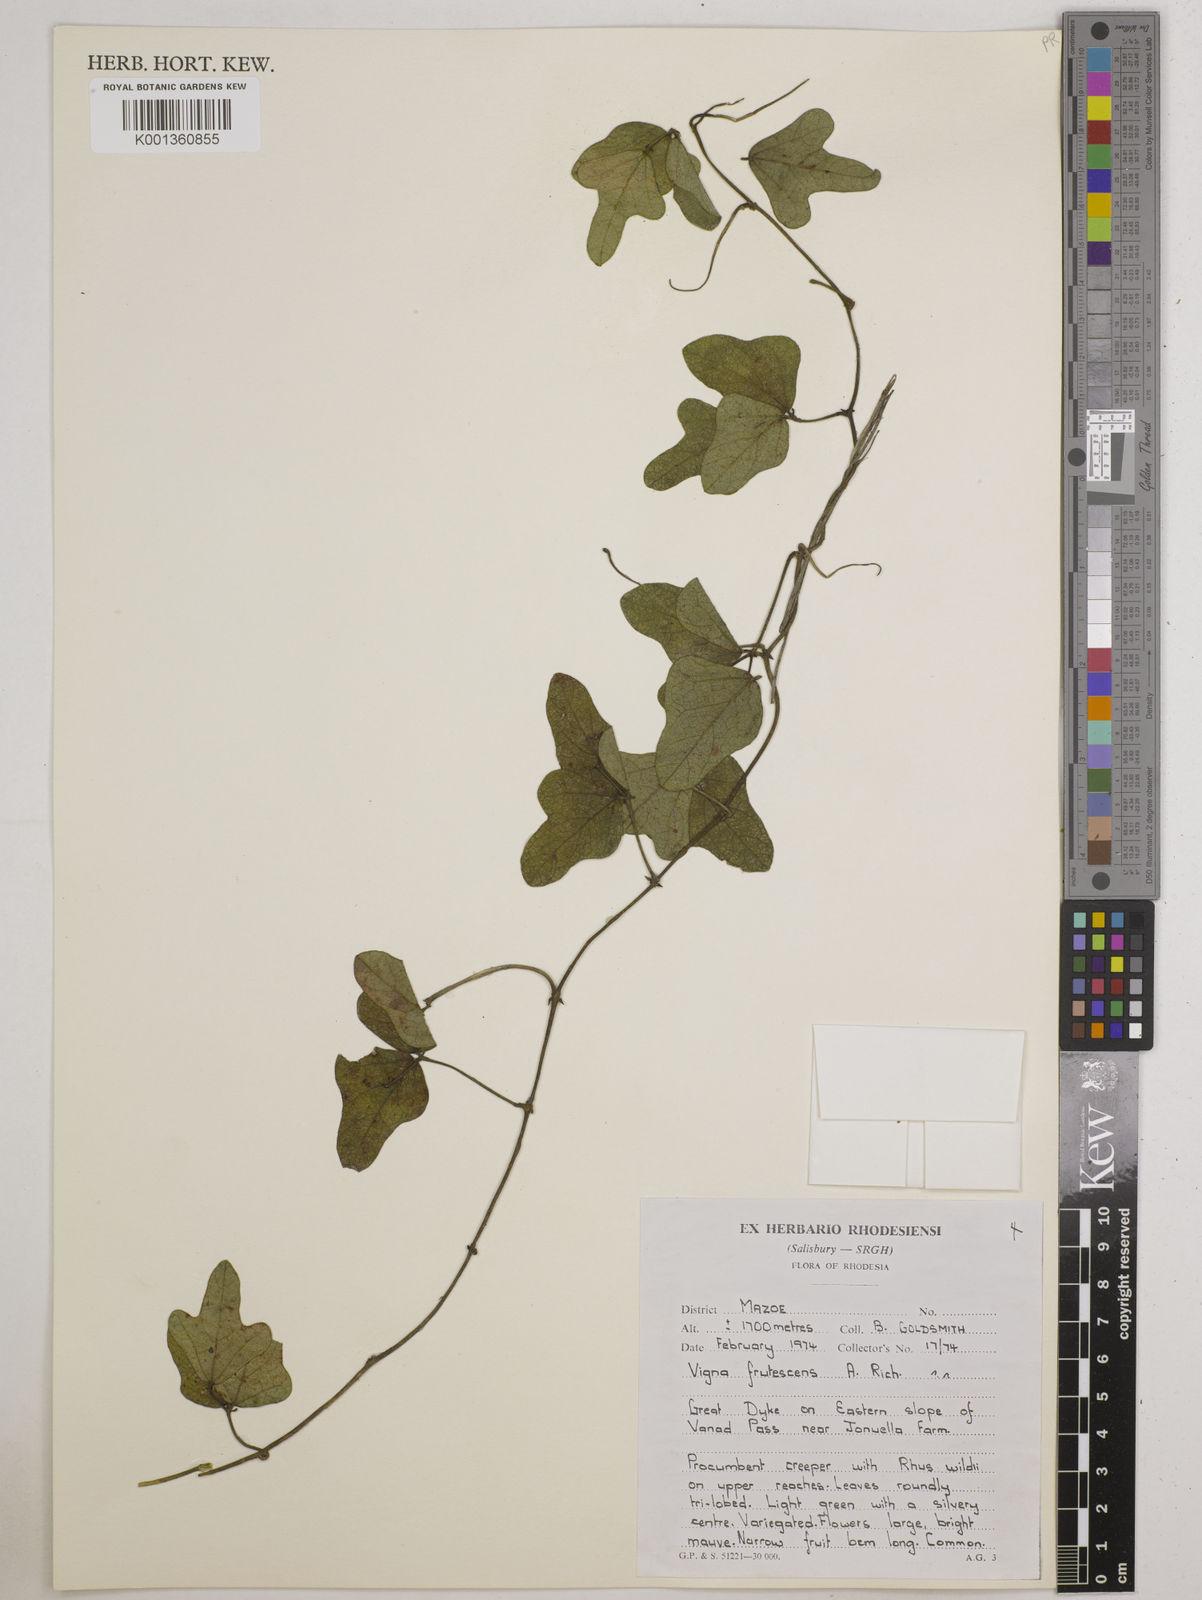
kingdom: Plantae
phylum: Tracheophyta
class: Magnoliopsida
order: Fabales
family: Fabaceae
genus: Vigna
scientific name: Vigna
